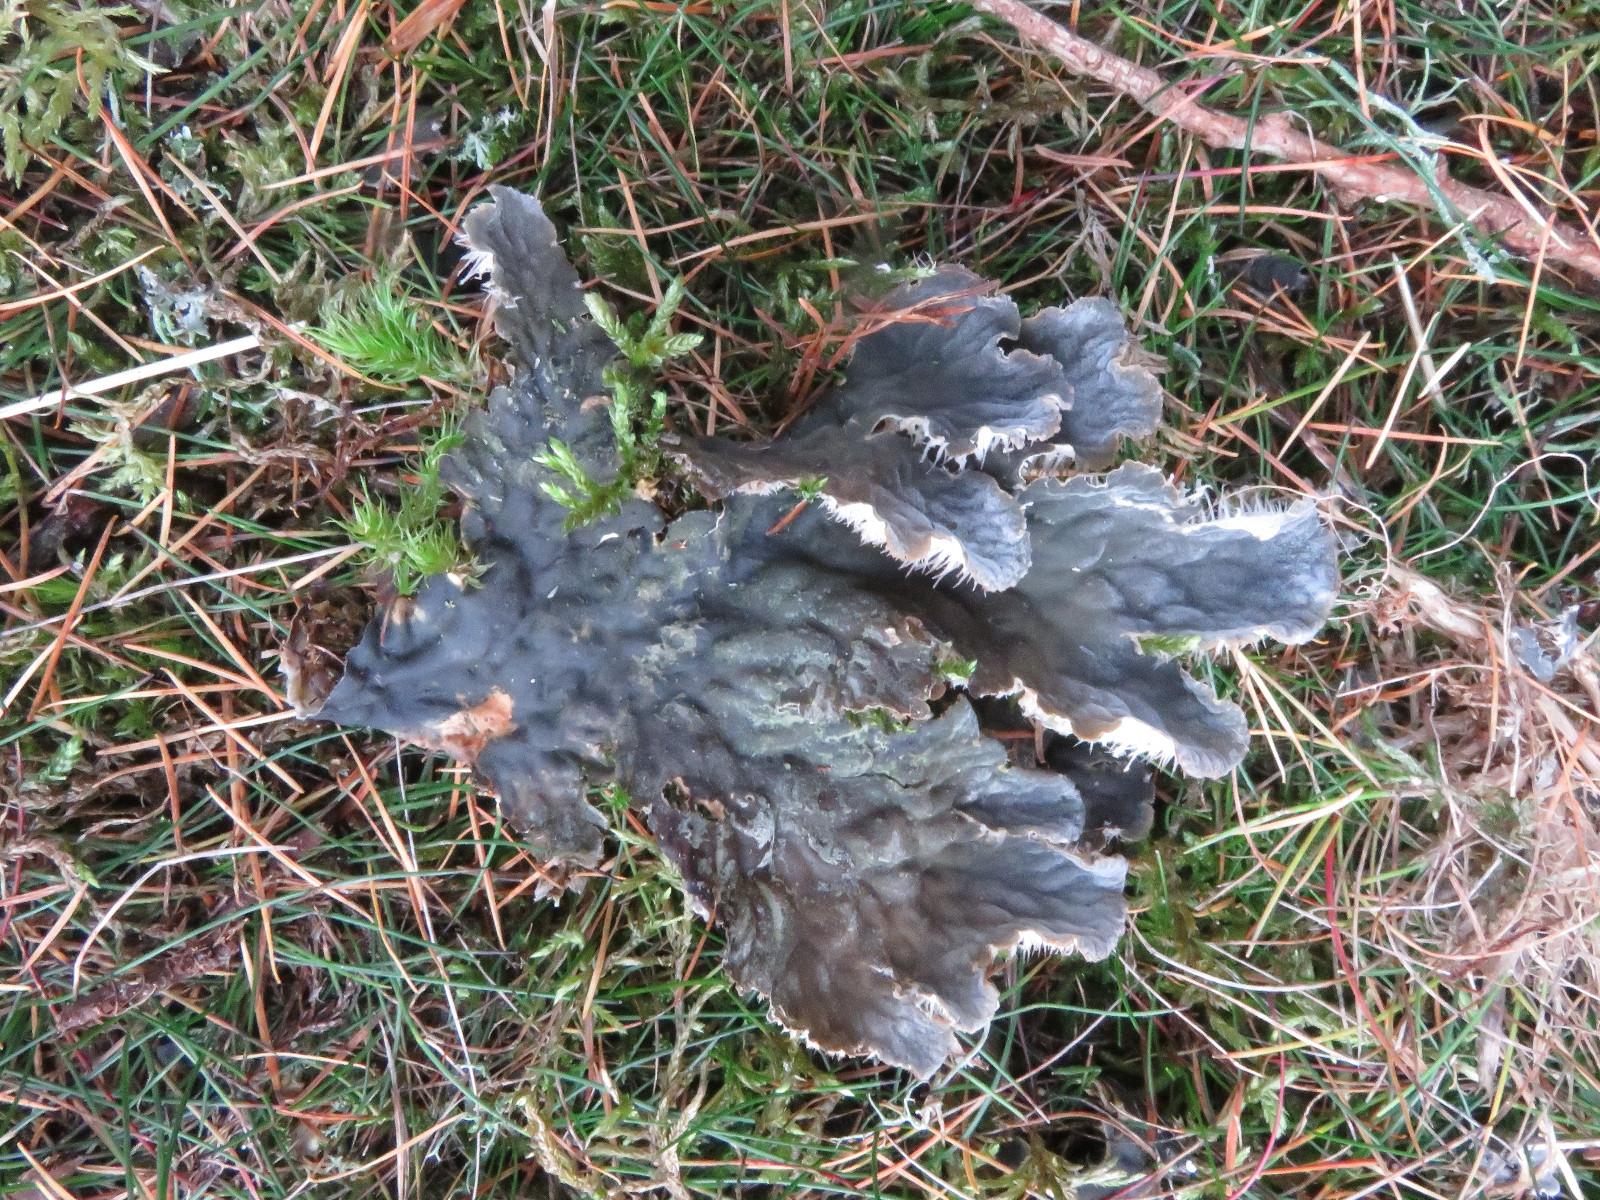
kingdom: Fungi
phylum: Ascomycota
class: Lecanoromycetes
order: Peltigerales
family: Peltigeraceae
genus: Peltigera
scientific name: Peltigera membranacea
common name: tynd skjoldlav
